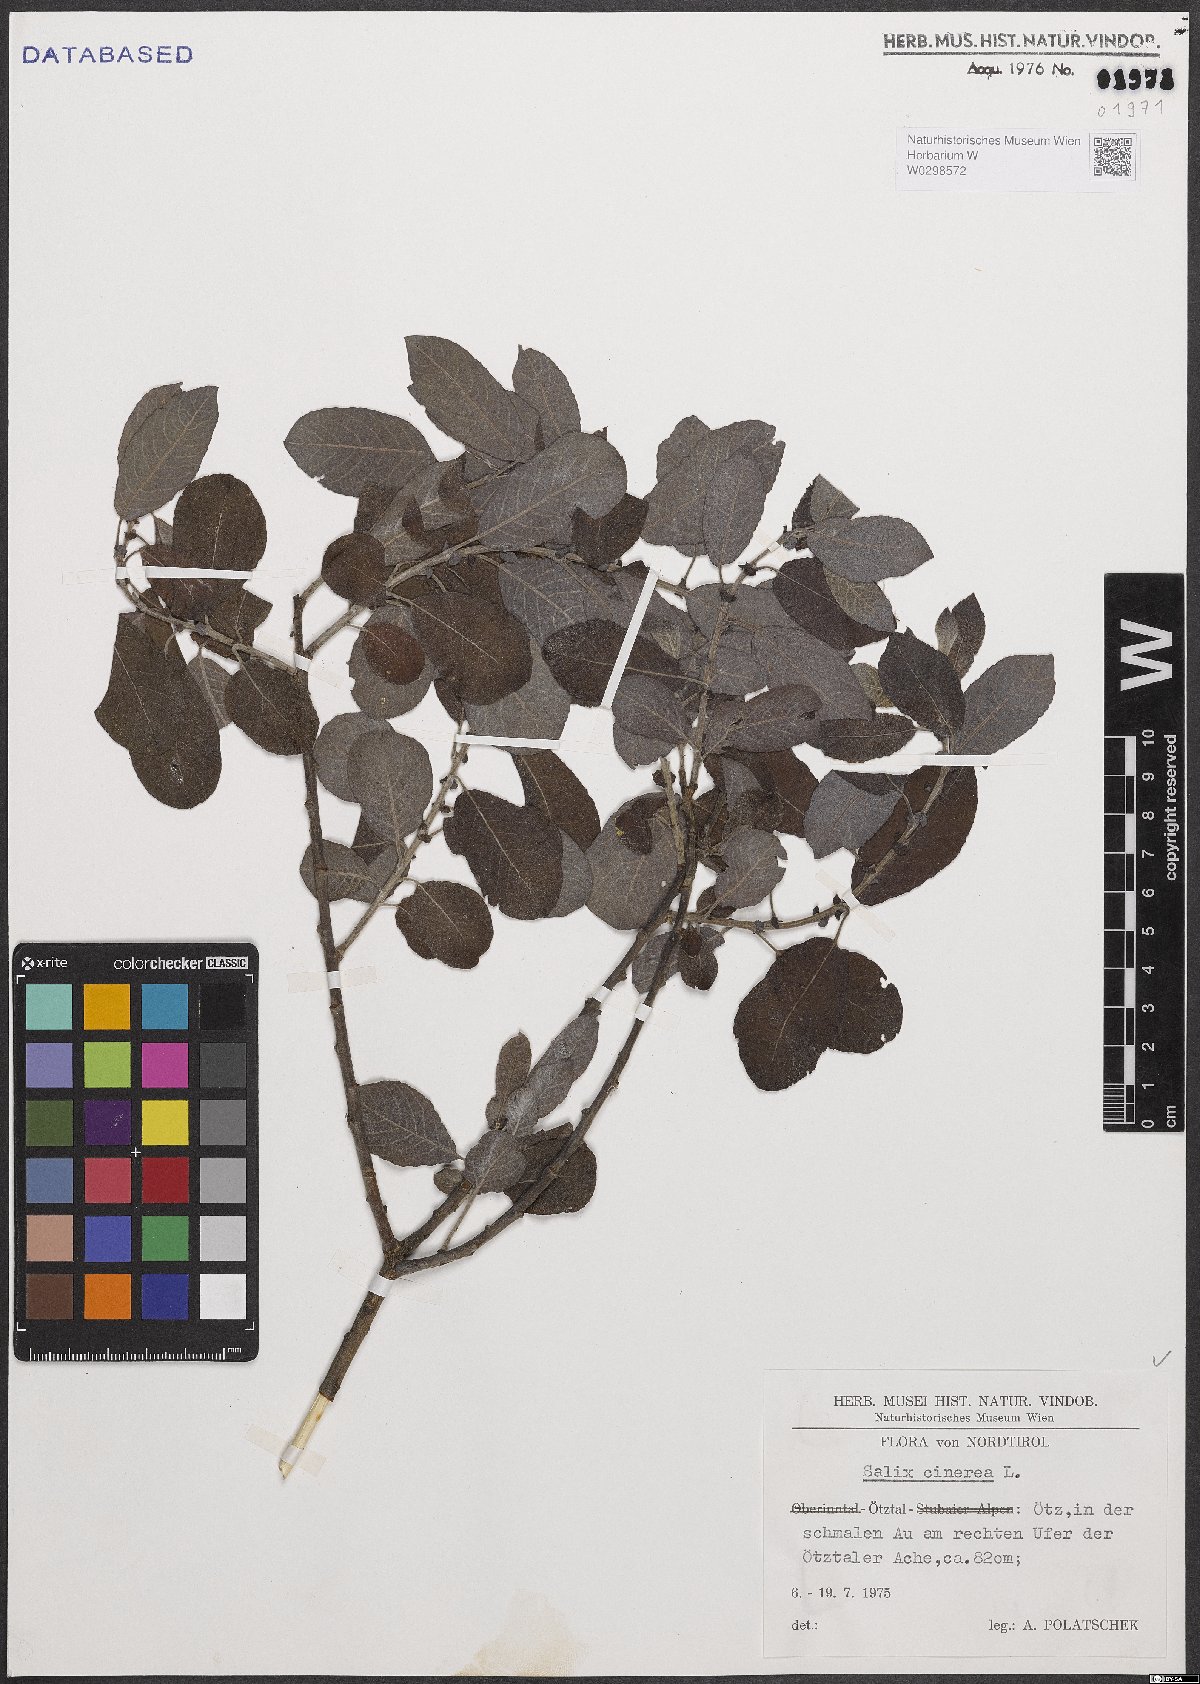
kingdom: Plantae
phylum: Tracheophyta
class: Magnoliopsida
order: Malpighiales
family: Salicaceae
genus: Salix
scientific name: Salix cinerea
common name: Common sallow
